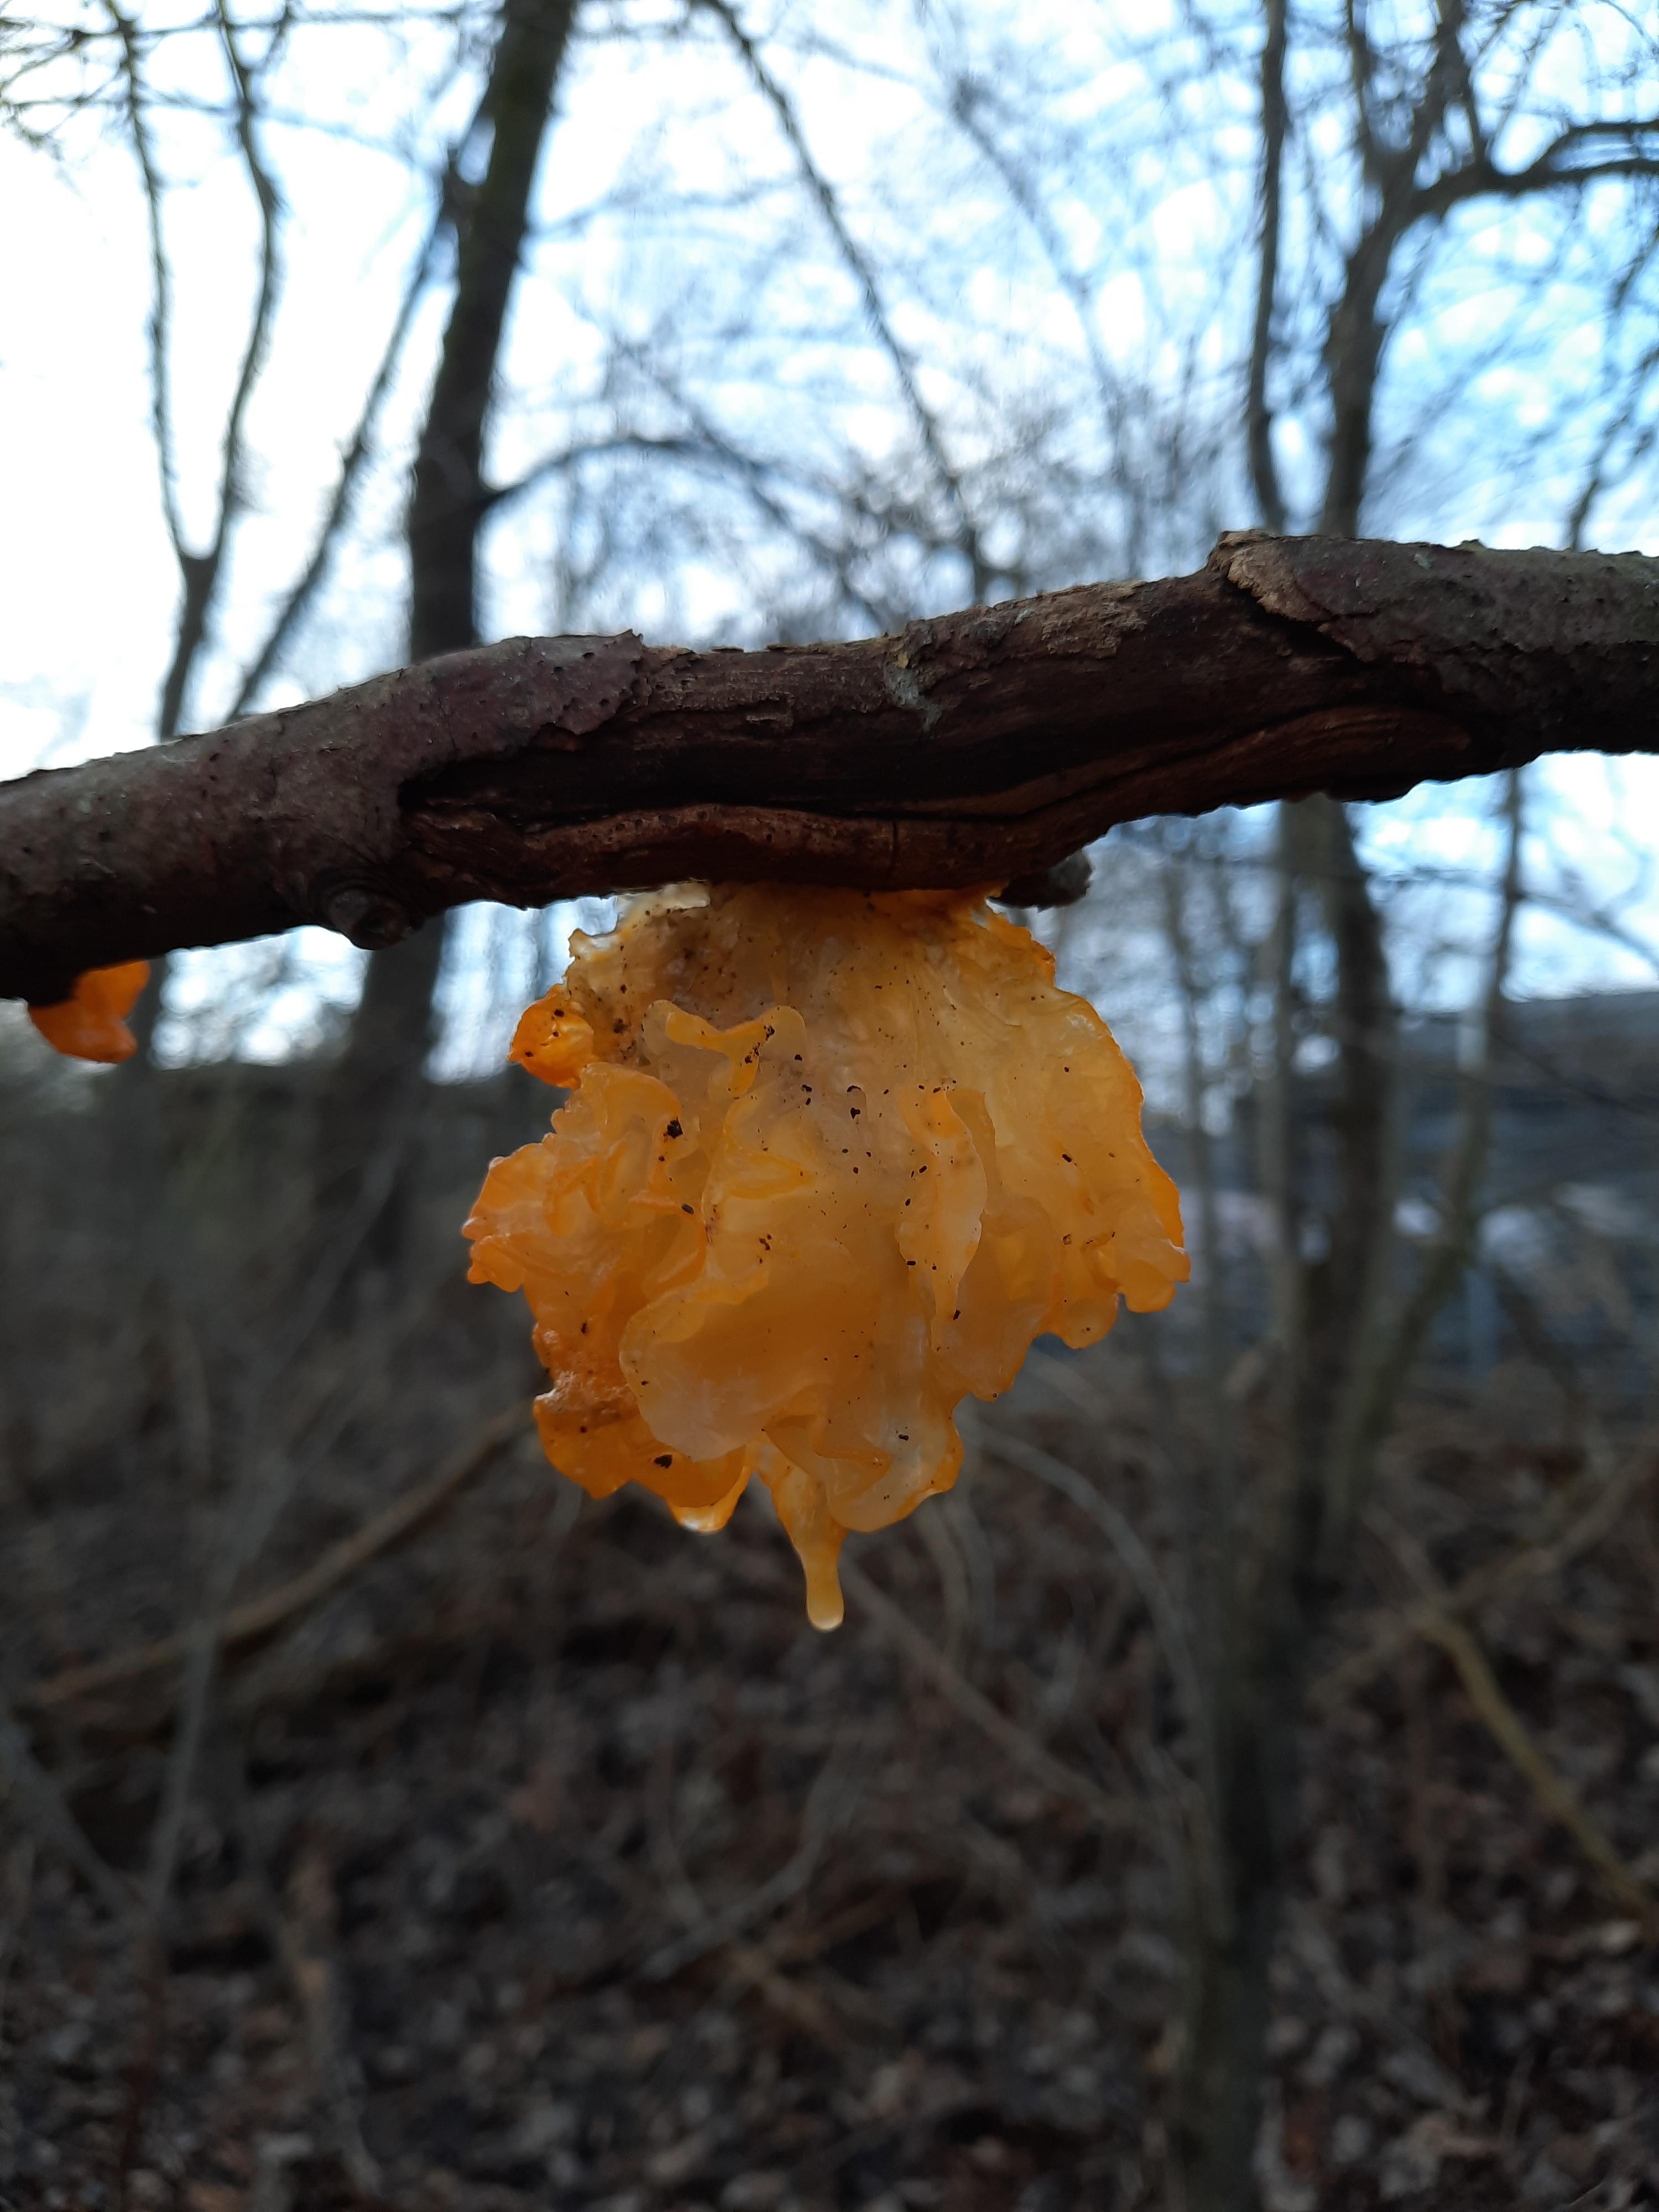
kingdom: Fungi
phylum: Basidiomycota
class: Tremellomycetes
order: Tremellales
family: Tremellaceae
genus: Tremella
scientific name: Tremella mesenterica
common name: gul bævresvamp
